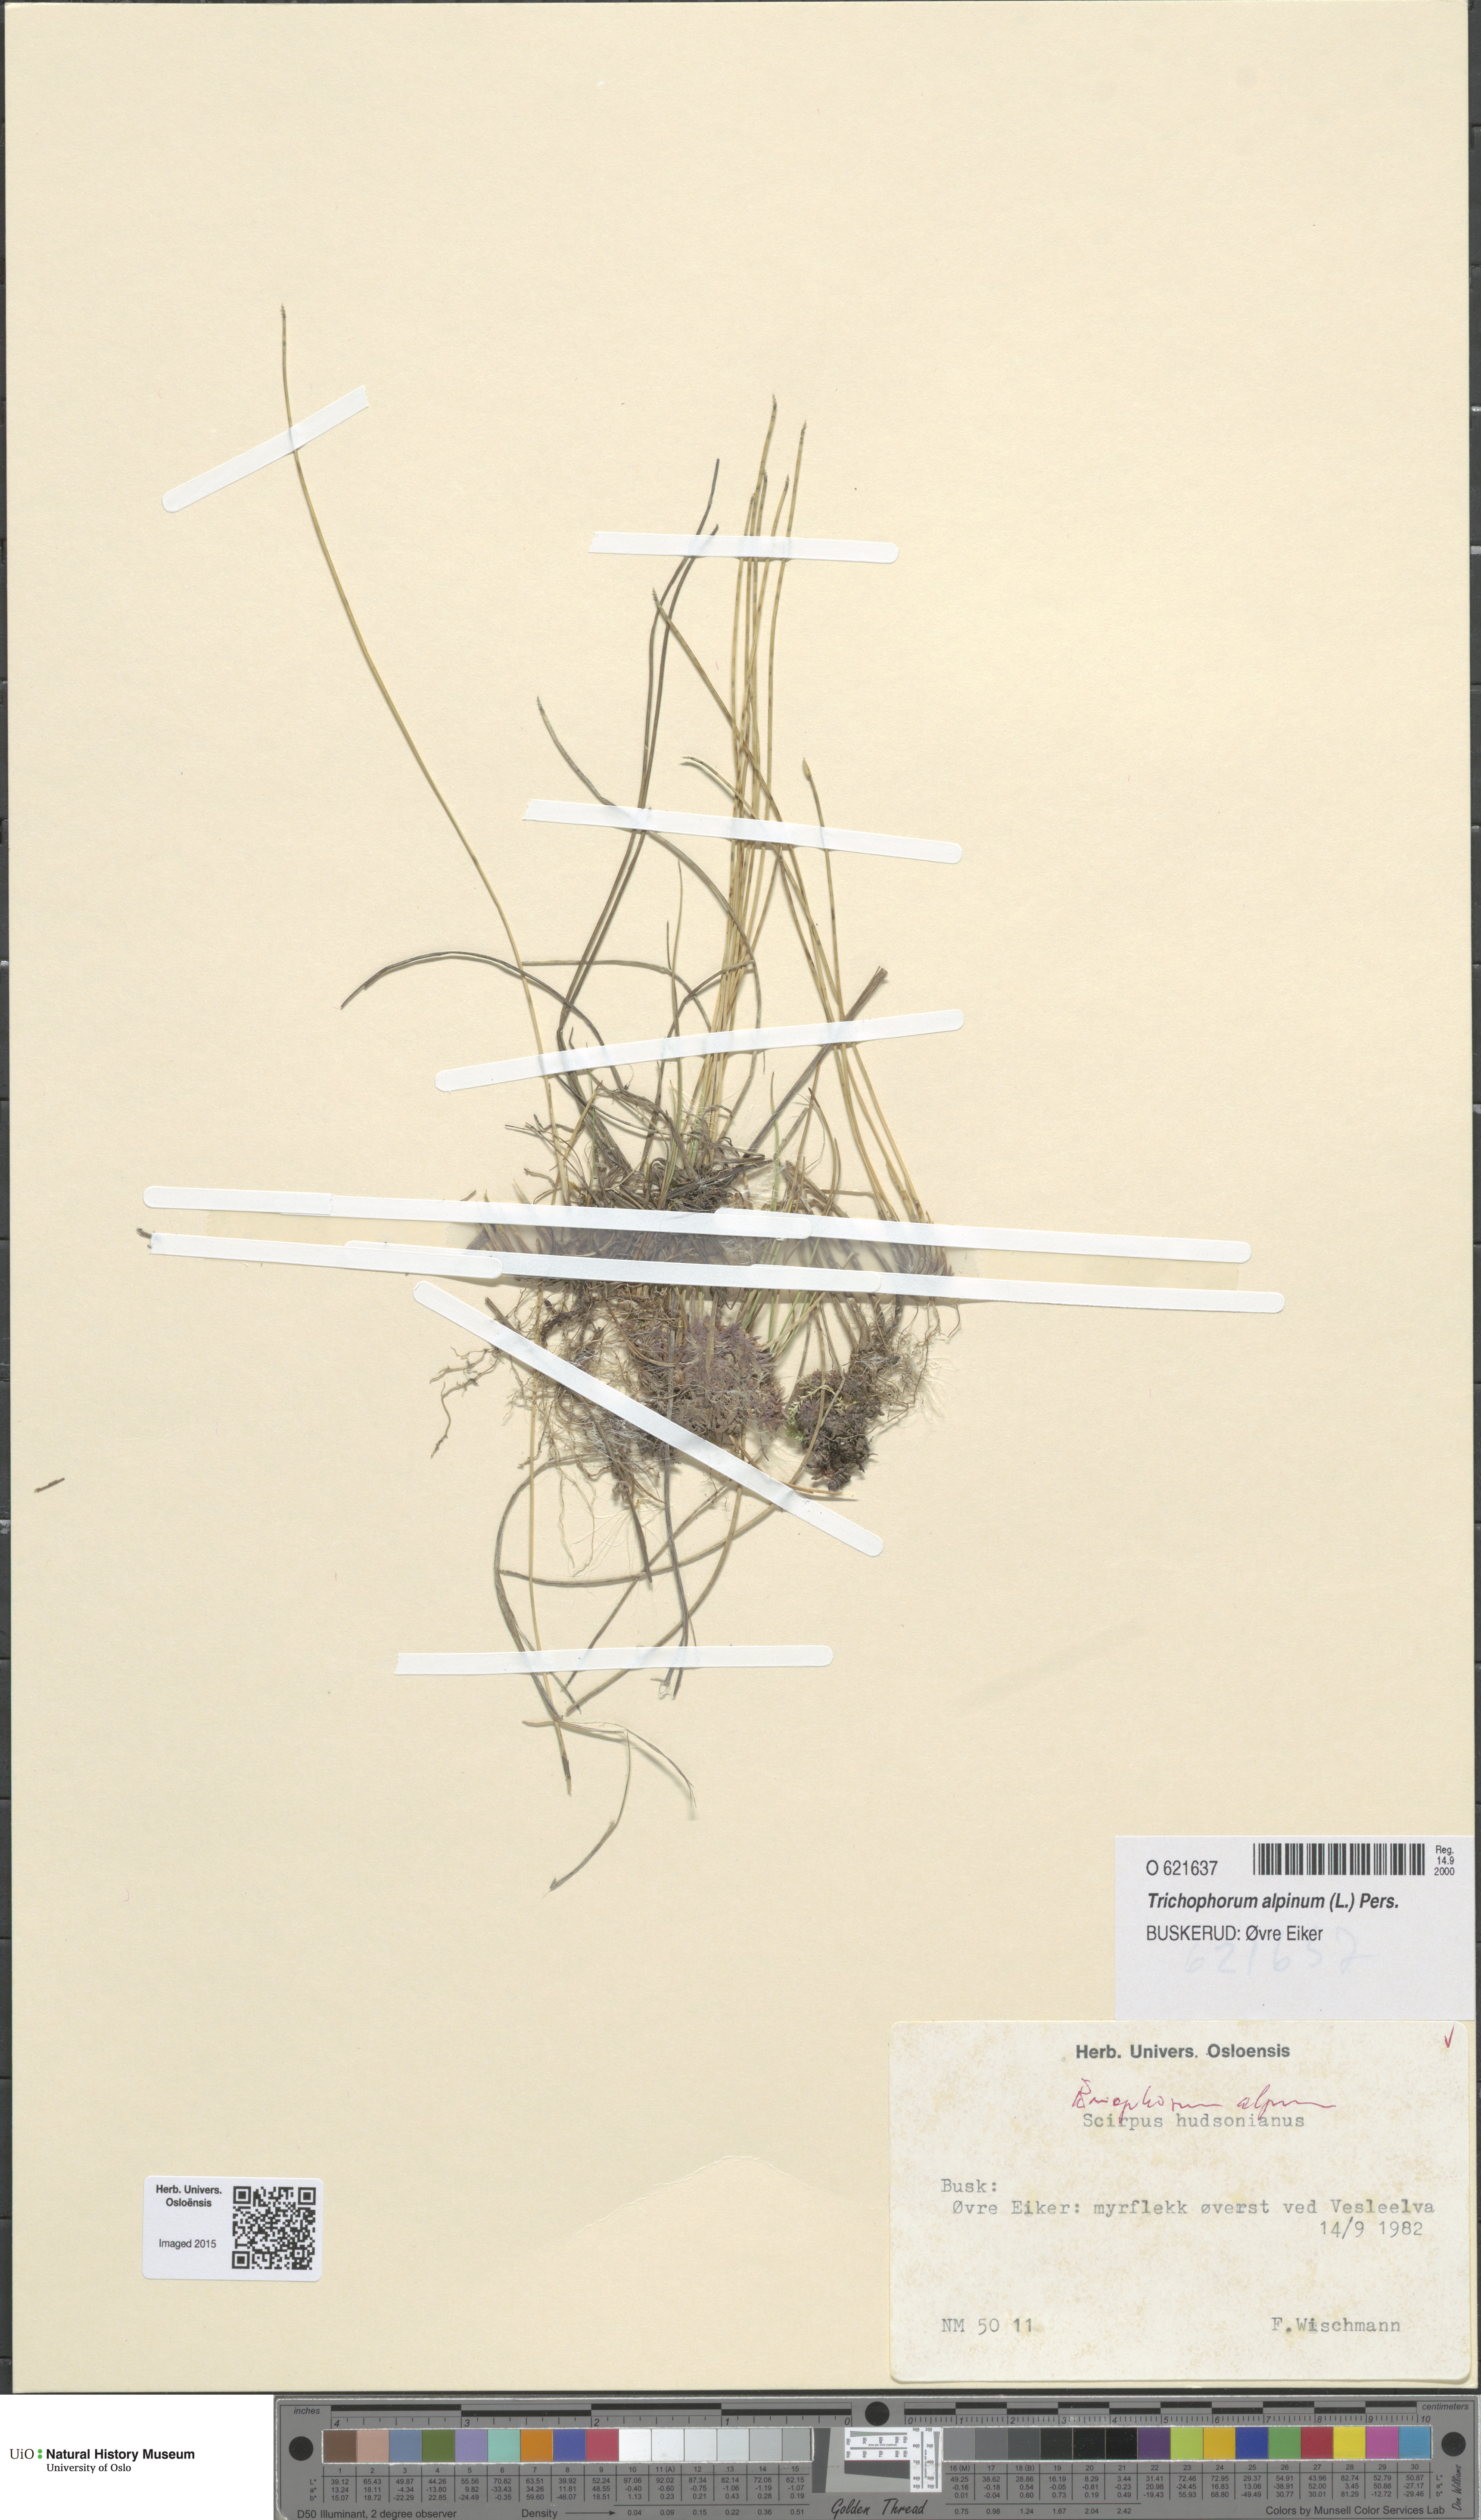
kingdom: Plantae
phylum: Tracheophyta
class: Liliopsida
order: Poales
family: Cyperaceae
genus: Trichophorum
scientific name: Trichophorum alpinum
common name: Alpine bulrush
